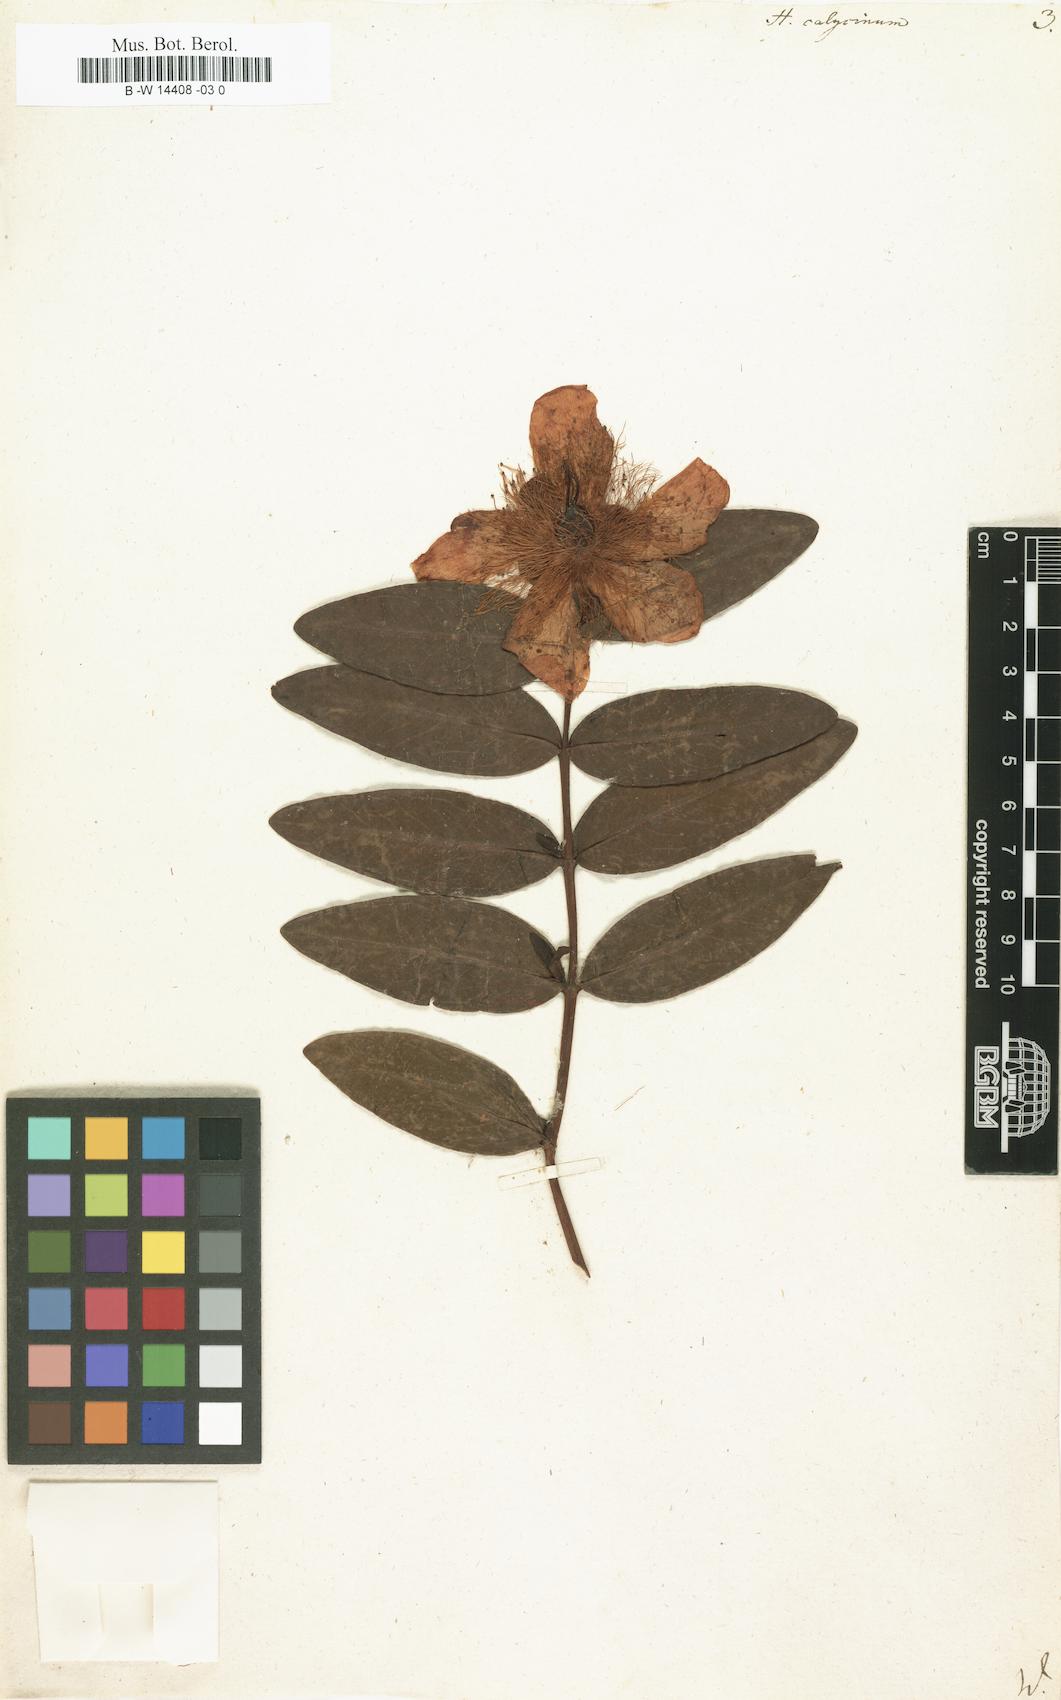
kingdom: Plantae
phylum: Tracheophyta
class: Magnoliopsida
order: Malpighiales
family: Hypericaceae
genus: Hypericum
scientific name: Hypericum calycinum
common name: Rose-of-sharon
